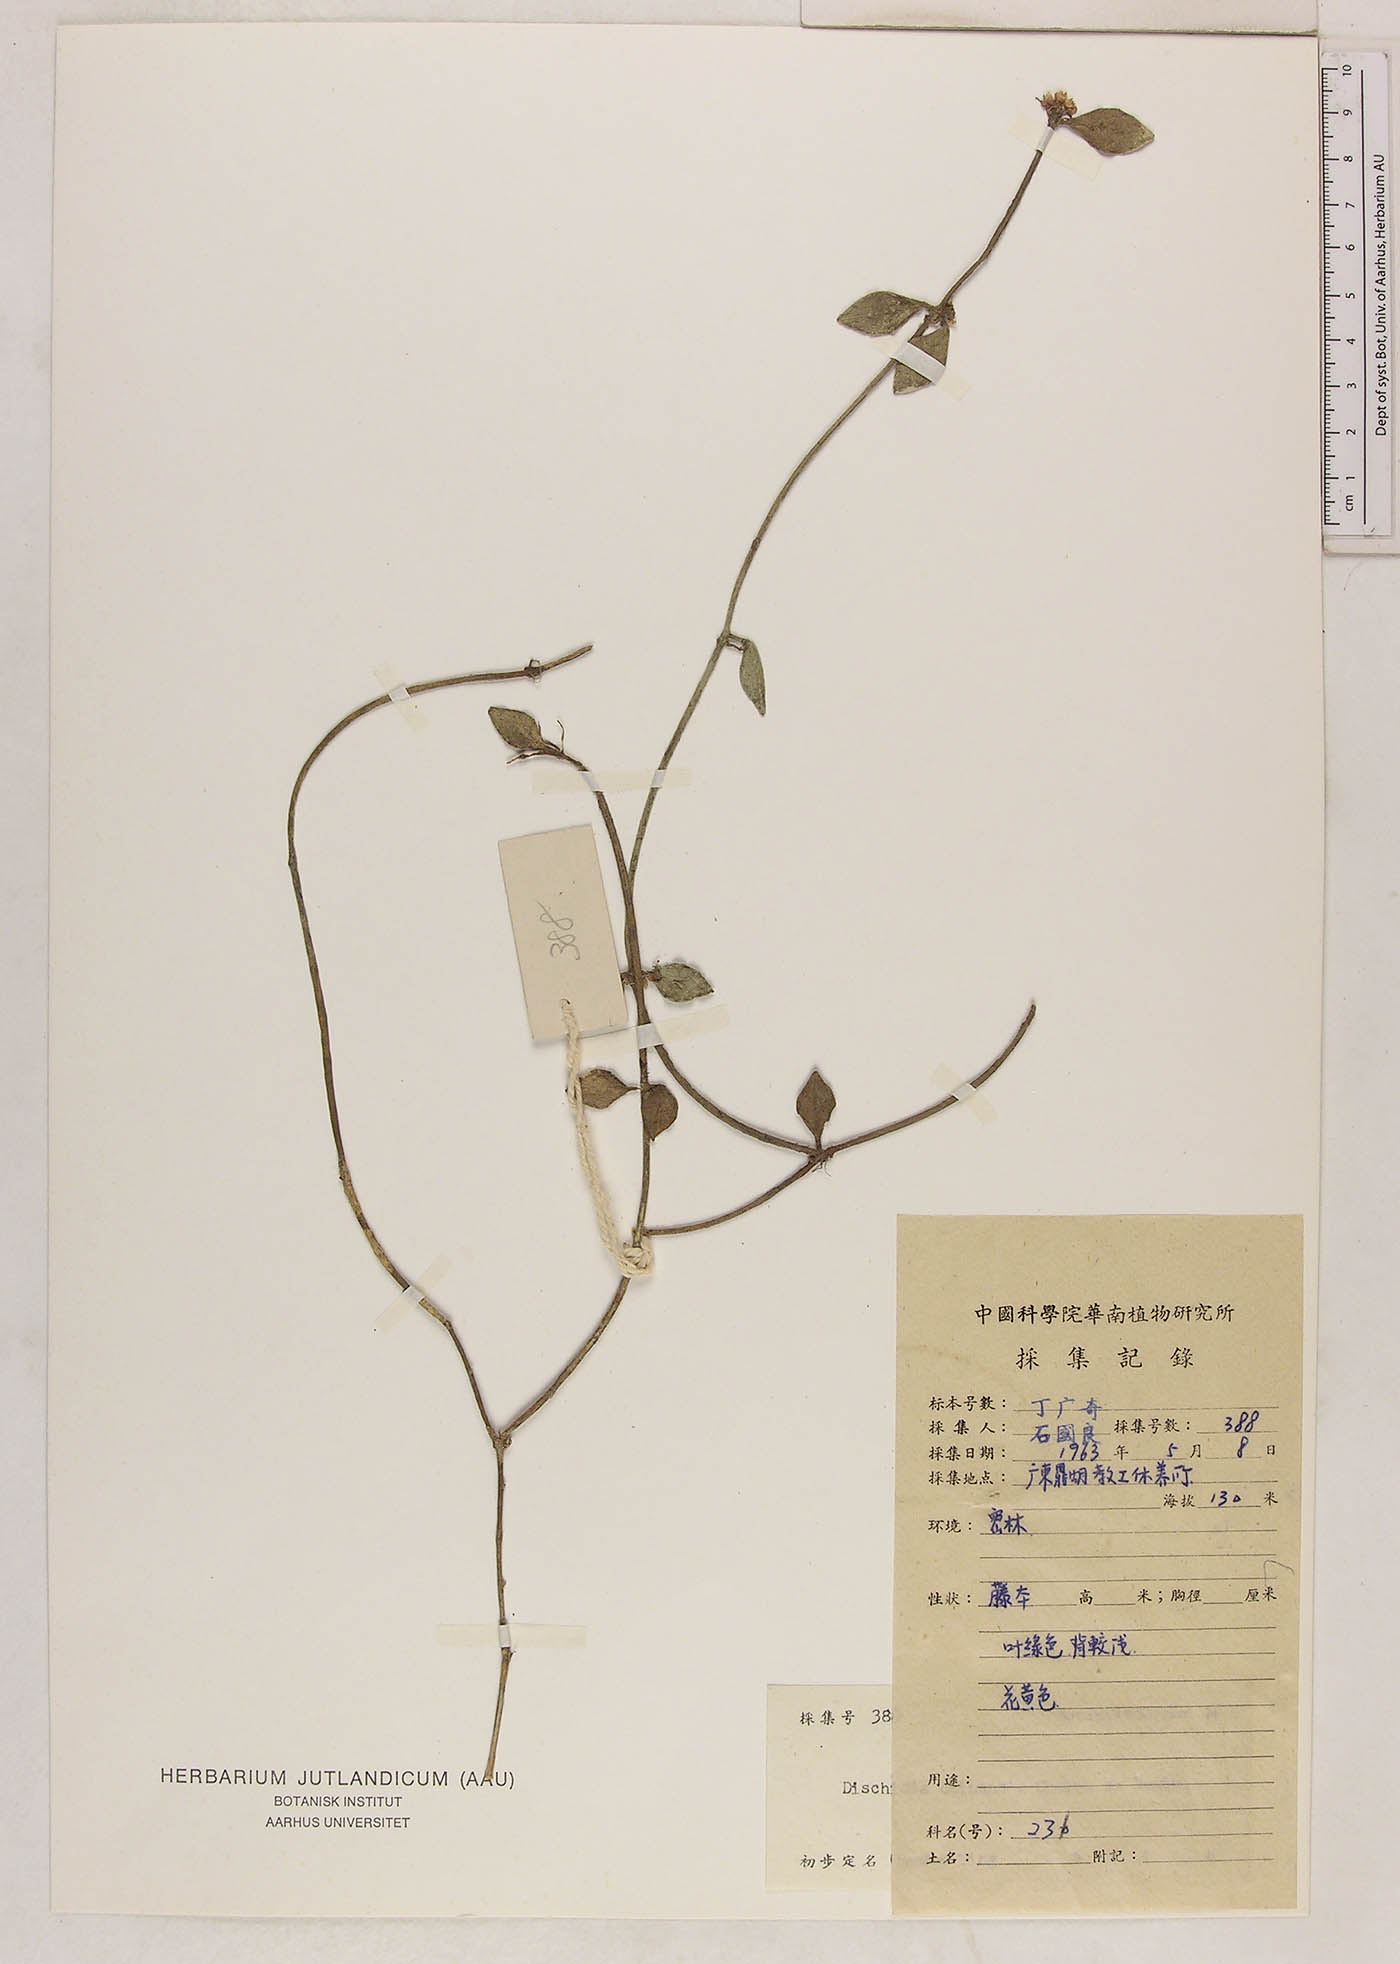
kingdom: Plantae
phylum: Tracheophyta
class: Magnoliopsida
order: Gentianales
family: Apocynaceae
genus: Dischidia
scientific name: Dischidia bengalensis
